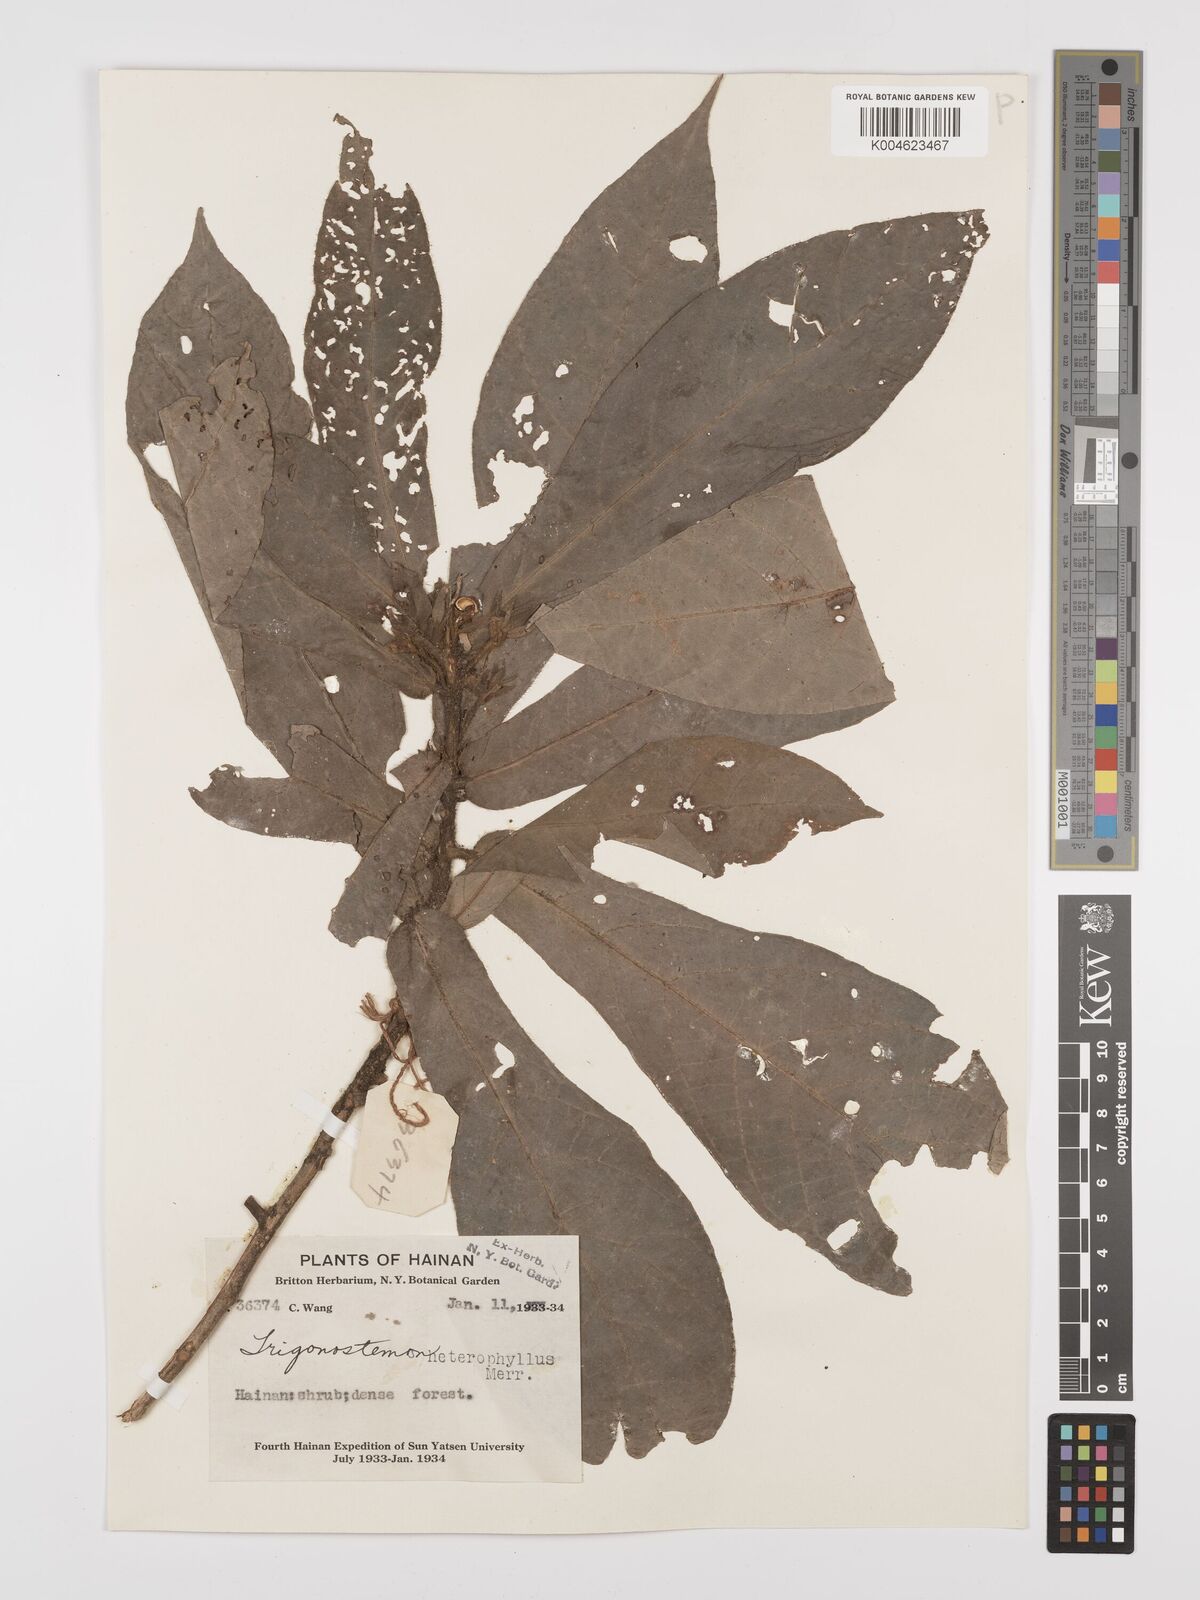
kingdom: Plantae
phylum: Tracheophyta
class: Magnoliopsida
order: Malpighiales
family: Euphorbiaceae
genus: Trigonostemon
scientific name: Trigonostemon flavidus
